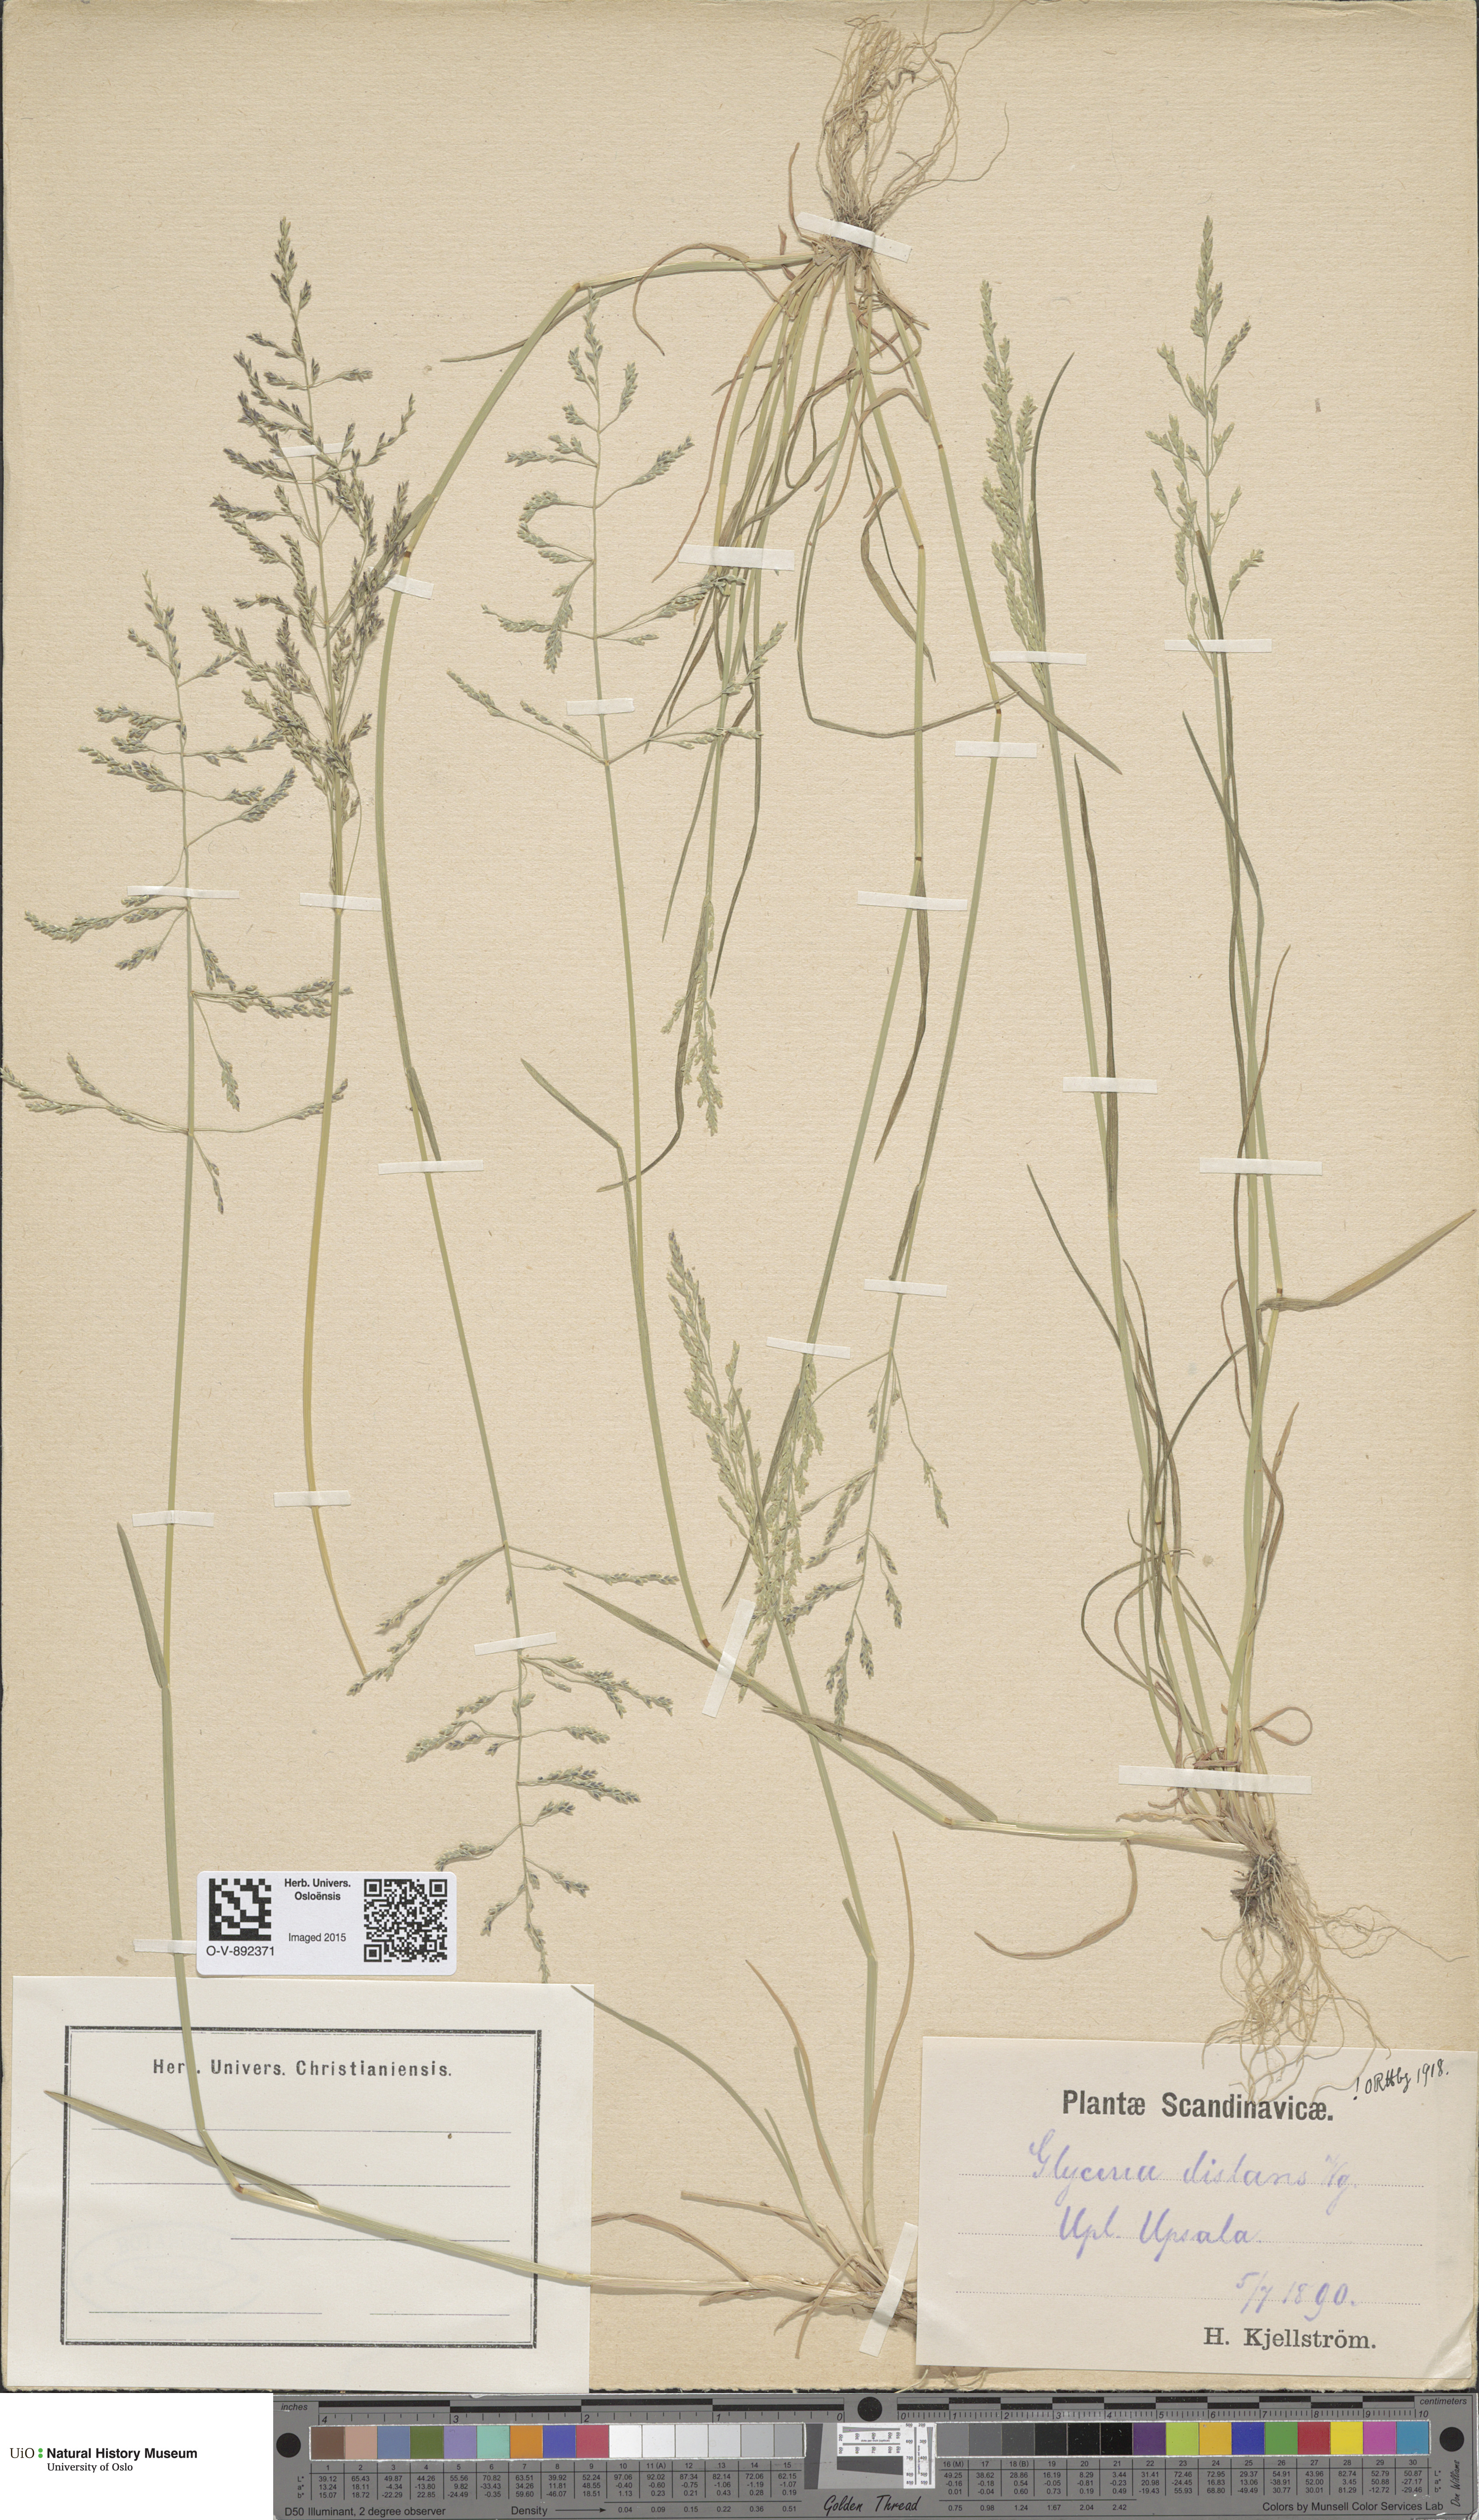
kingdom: Plantae
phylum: Tracheophyta
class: Liliopsida
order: Poales
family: Poaceae
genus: Puccinellia
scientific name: Puccinellia distans
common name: Weeping alkaligrass
